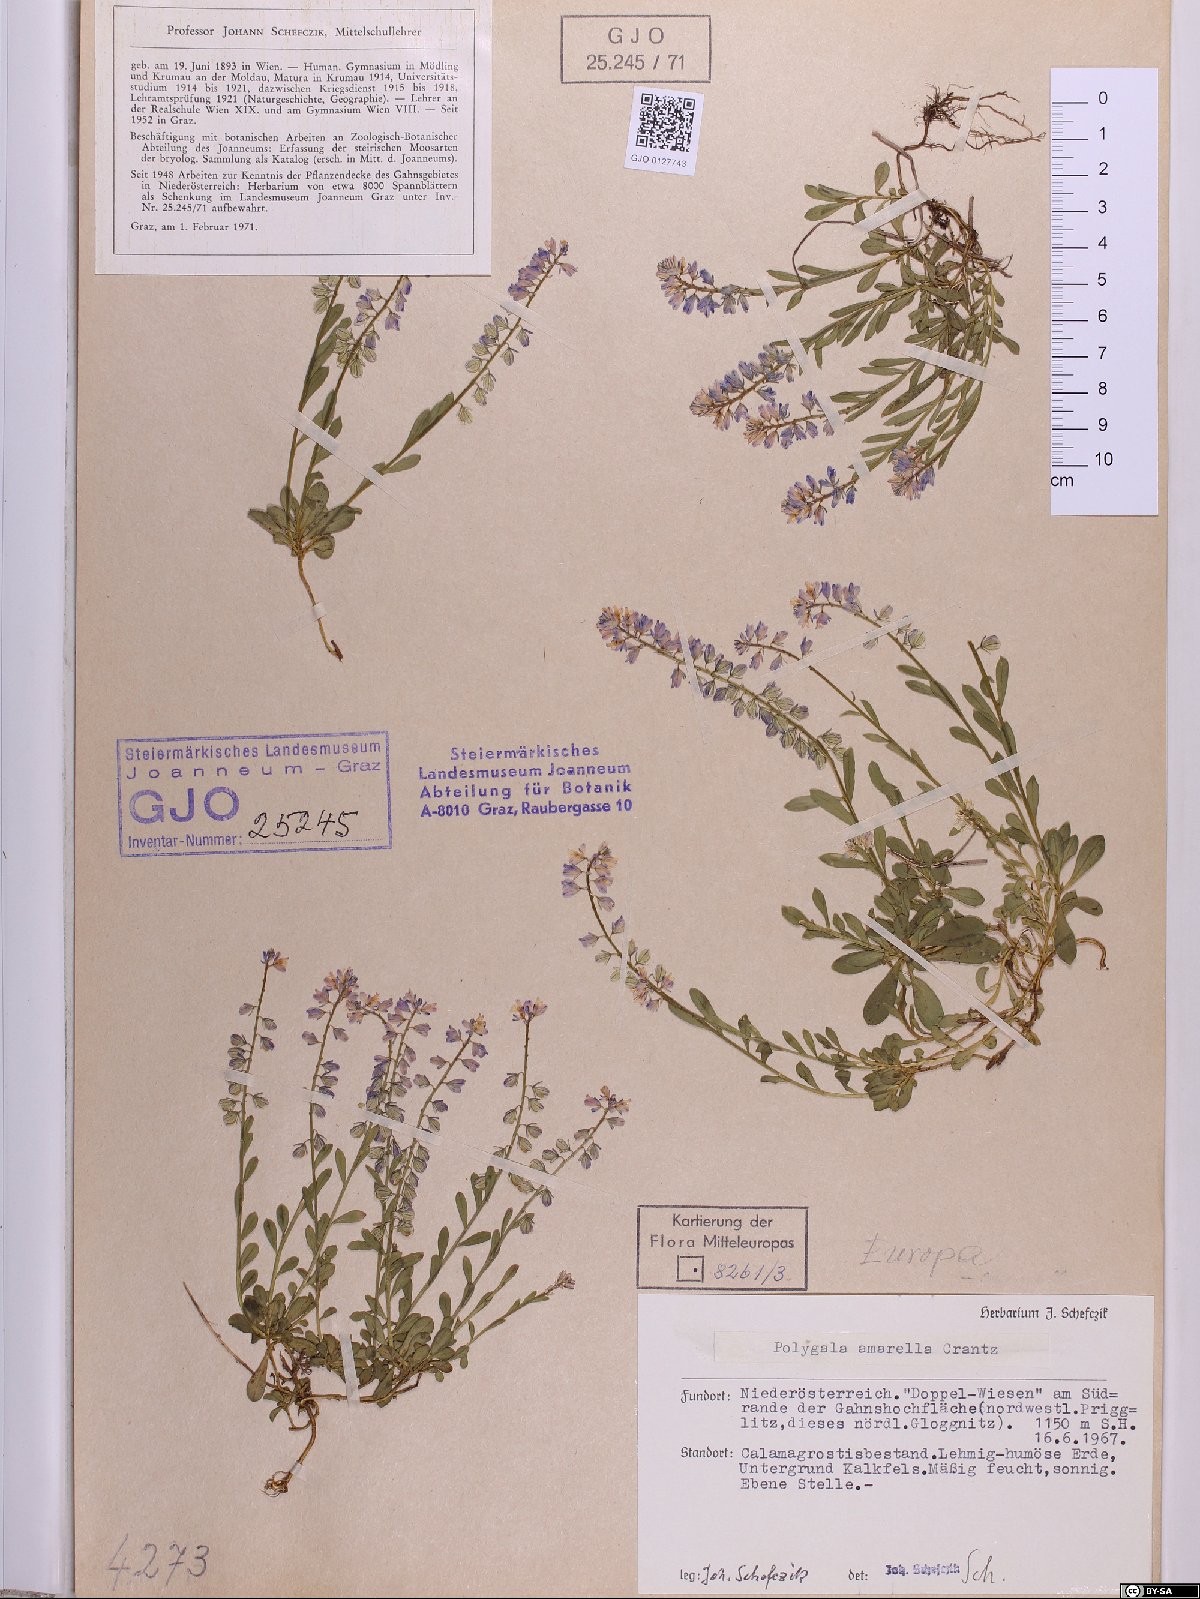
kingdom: Plantae
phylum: Tracheophyta
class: Magnoliopsida
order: Fabales
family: Polygalaceae
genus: Polygala
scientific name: Polygala amarella
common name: Dwarf milkwort
